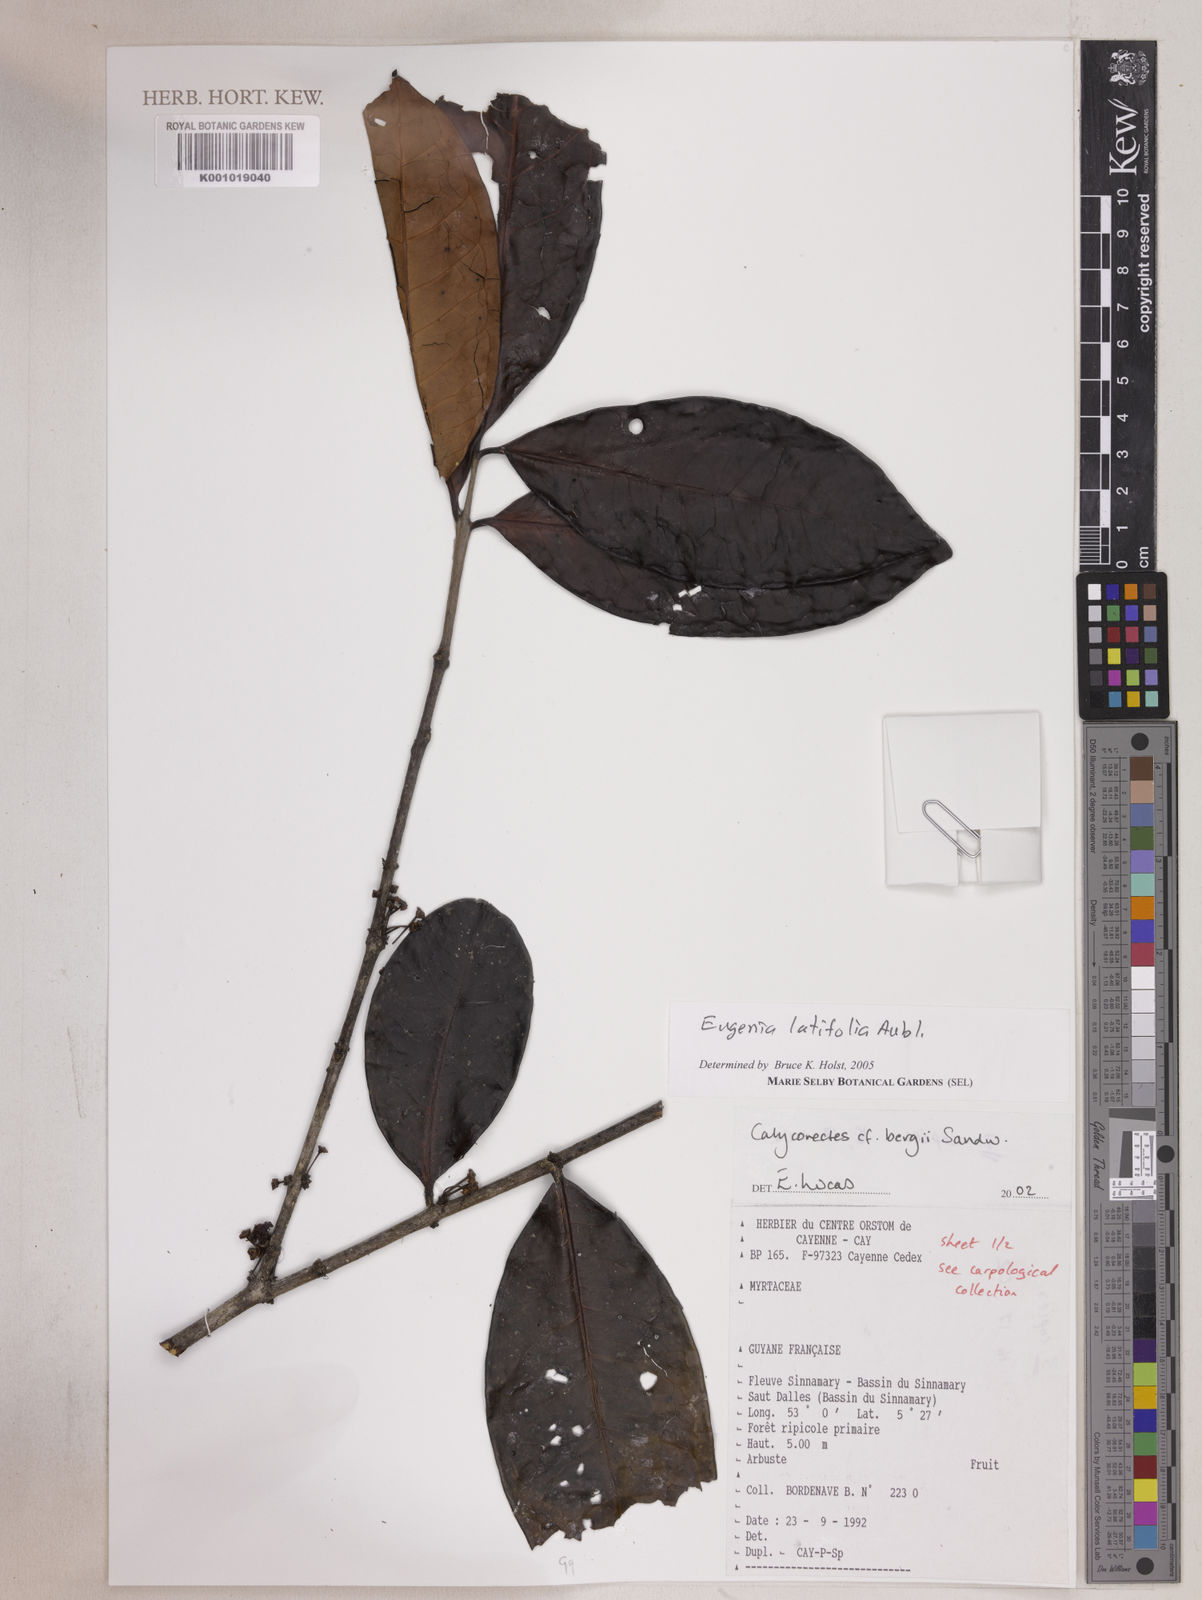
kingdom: Plantae
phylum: Tracheophyta
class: Magnoliopsida
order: Myrtales
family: Myrtaceae
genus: Eugenia
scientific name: Eugenia latifolia
